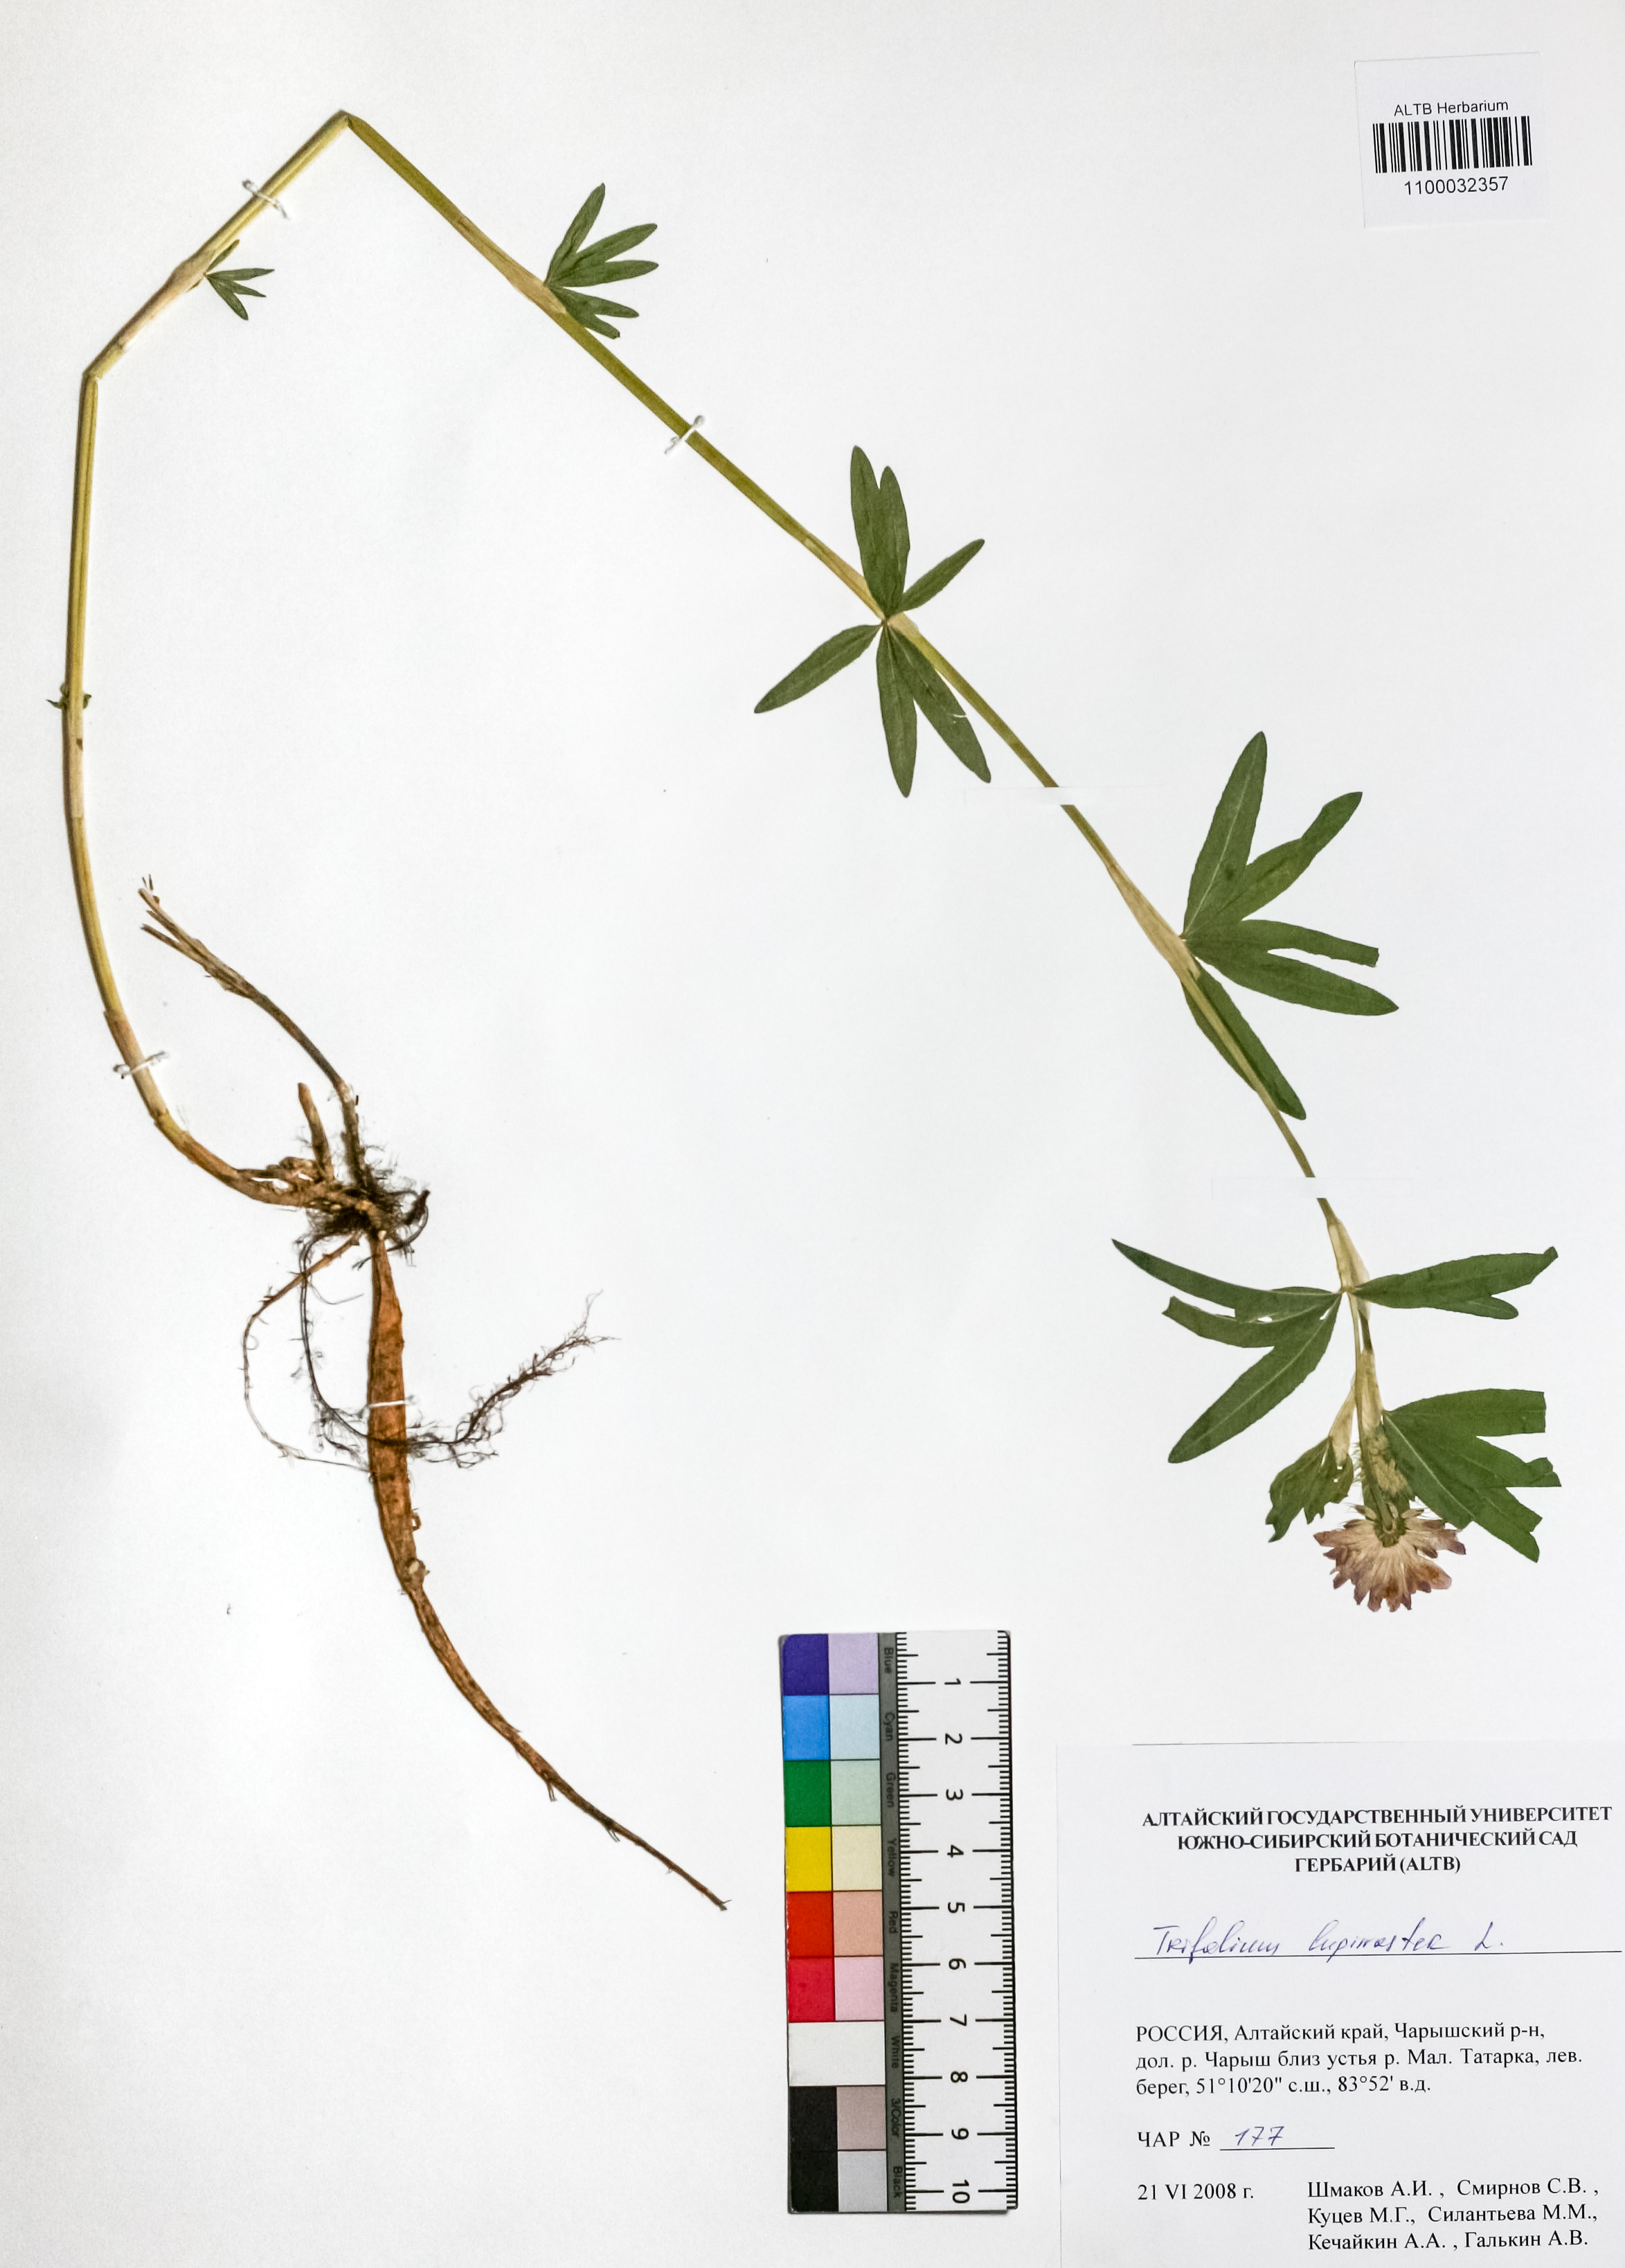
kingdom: Plantae
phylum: Tracheophyta
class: Magnoliopsida
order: Fabales
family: Fabaceae
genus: Trifolium
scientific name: Trifolium lupinaster
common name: Lupine clover
